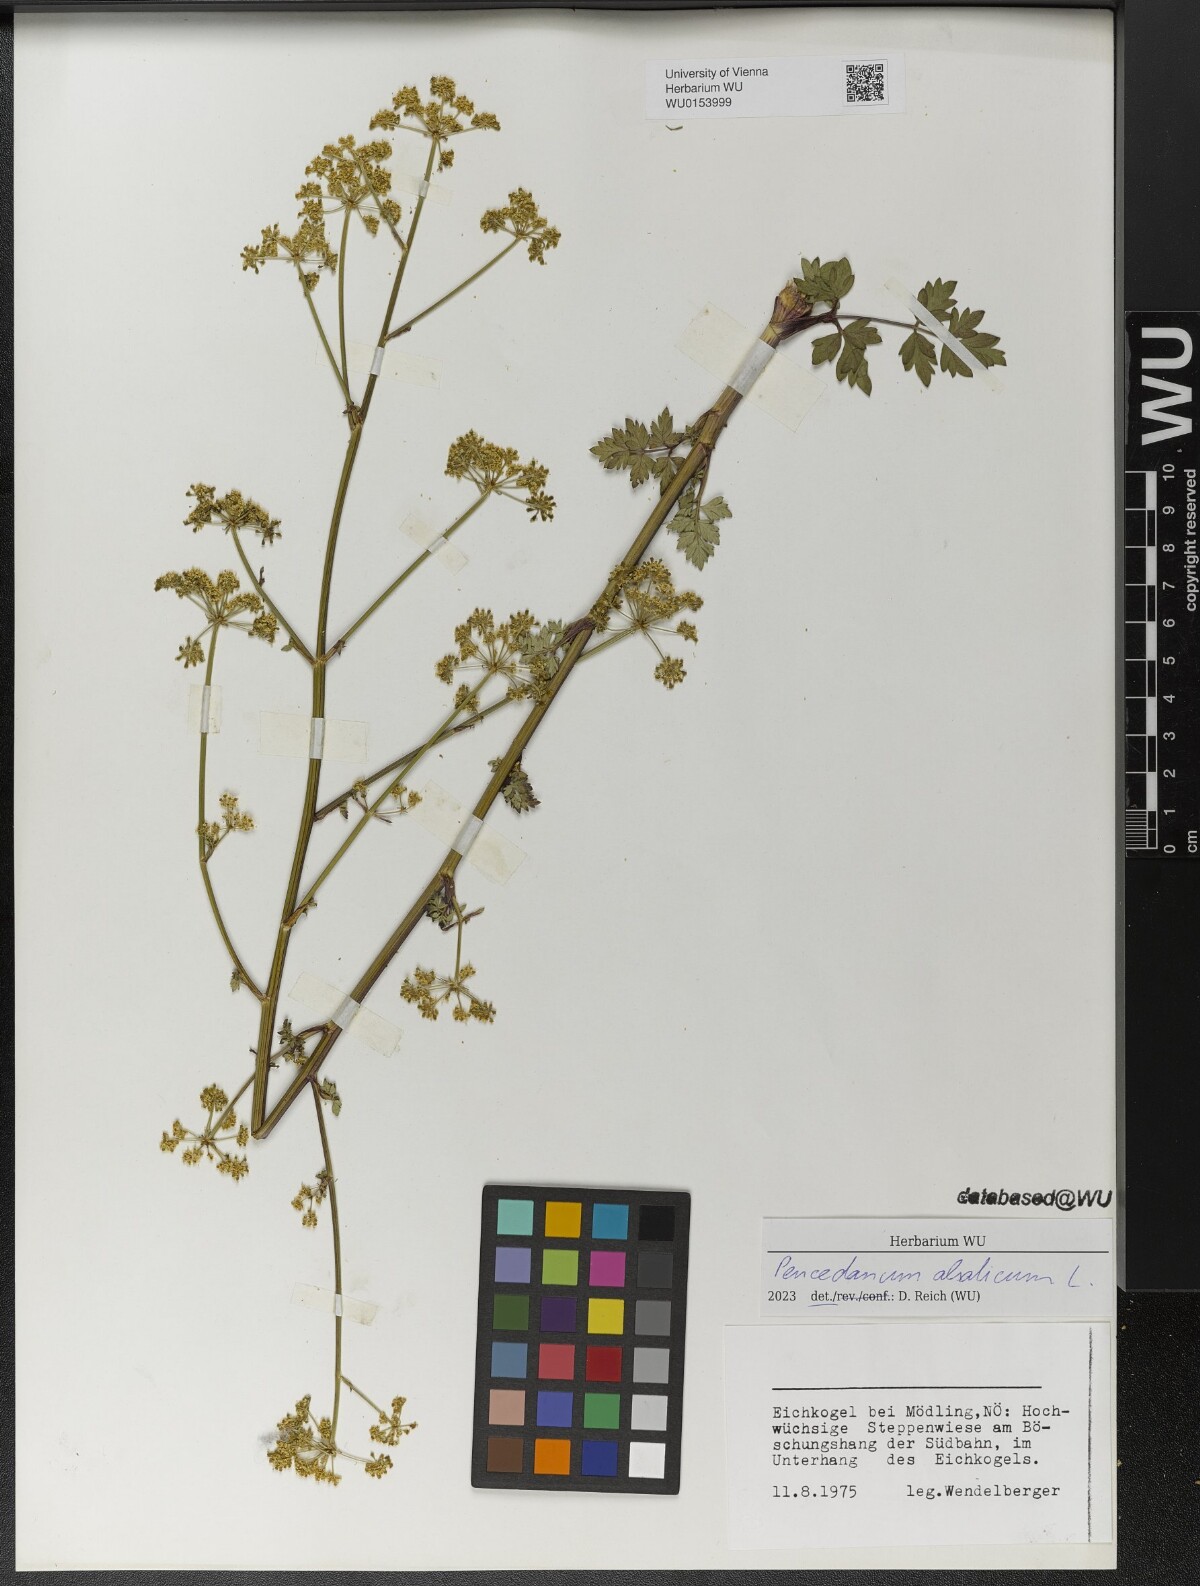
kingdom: Plantae
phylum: Tracheophyta
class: Magnoliopsida
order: Apiales
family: Apiaceae
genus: Xanthoselinum
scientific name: Xanthoselinum alsaticum
